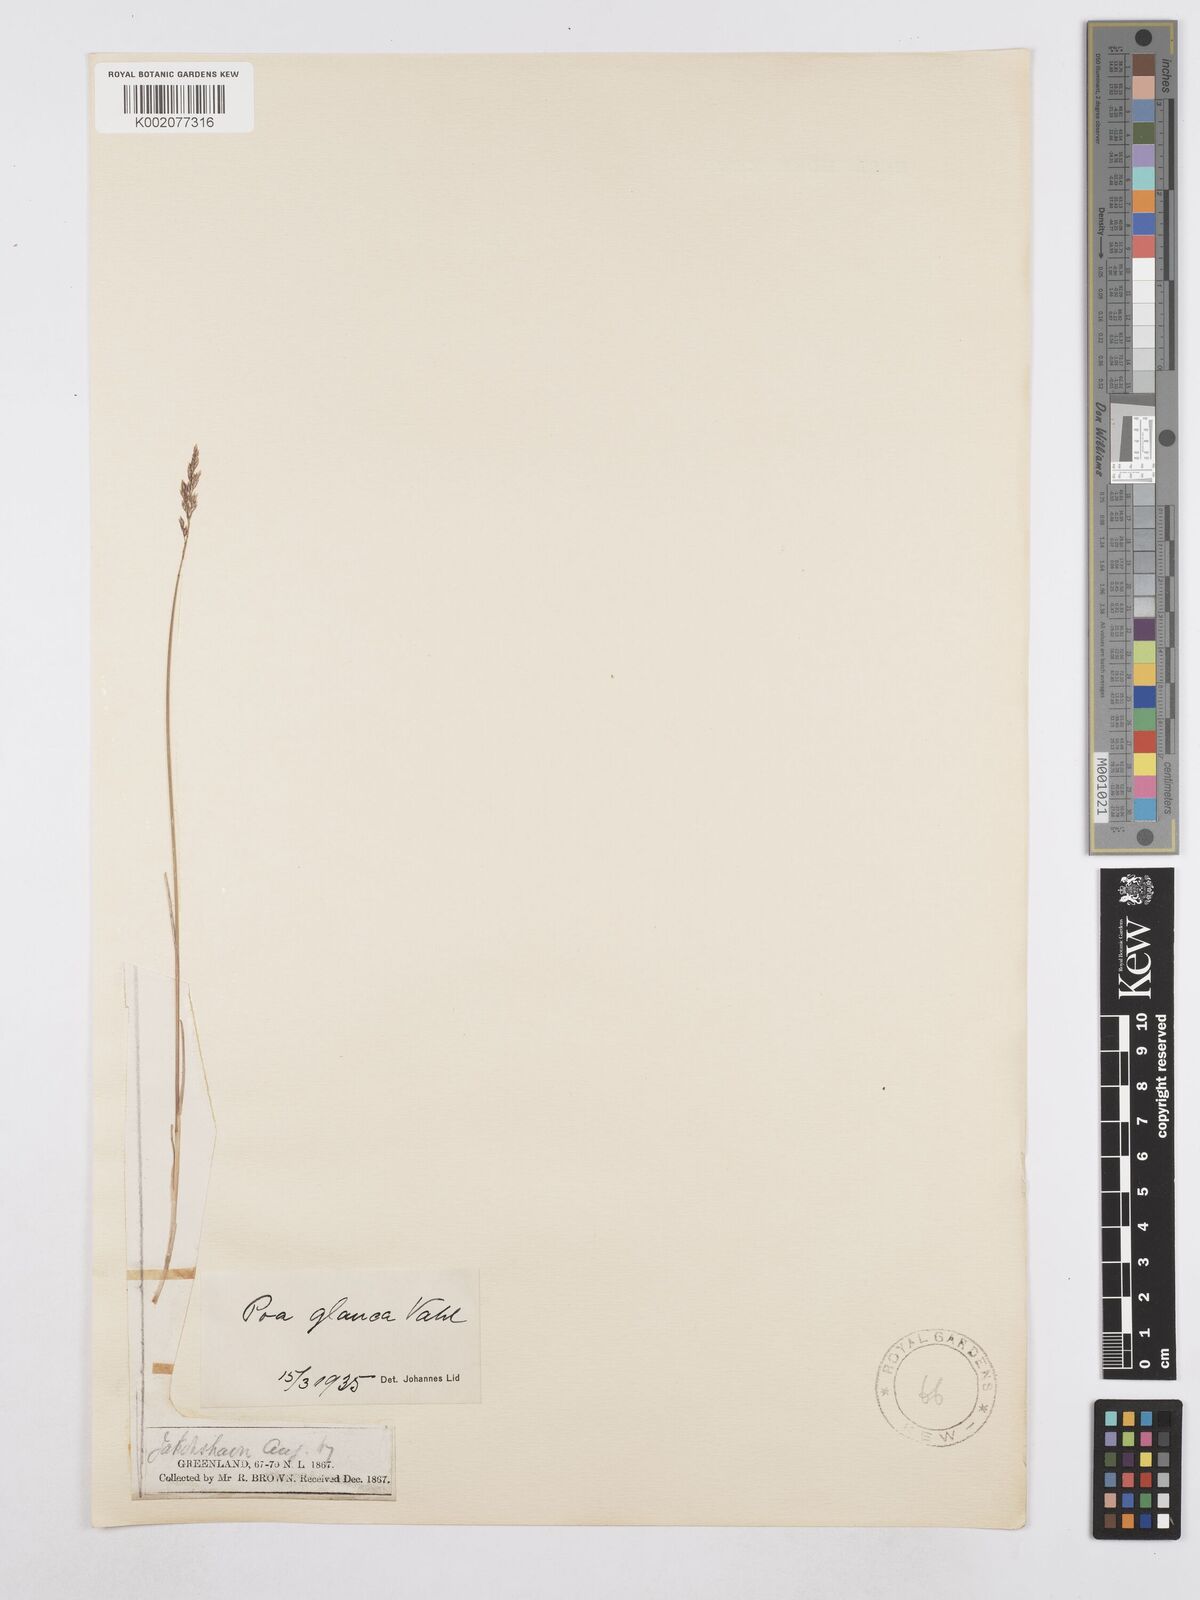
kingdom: Plantae
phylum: Tracheophyta
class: Liliopsida
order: Poales
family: Poaceae
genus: Poa
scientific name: Poa glauca
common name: Glaucous bluegrass
